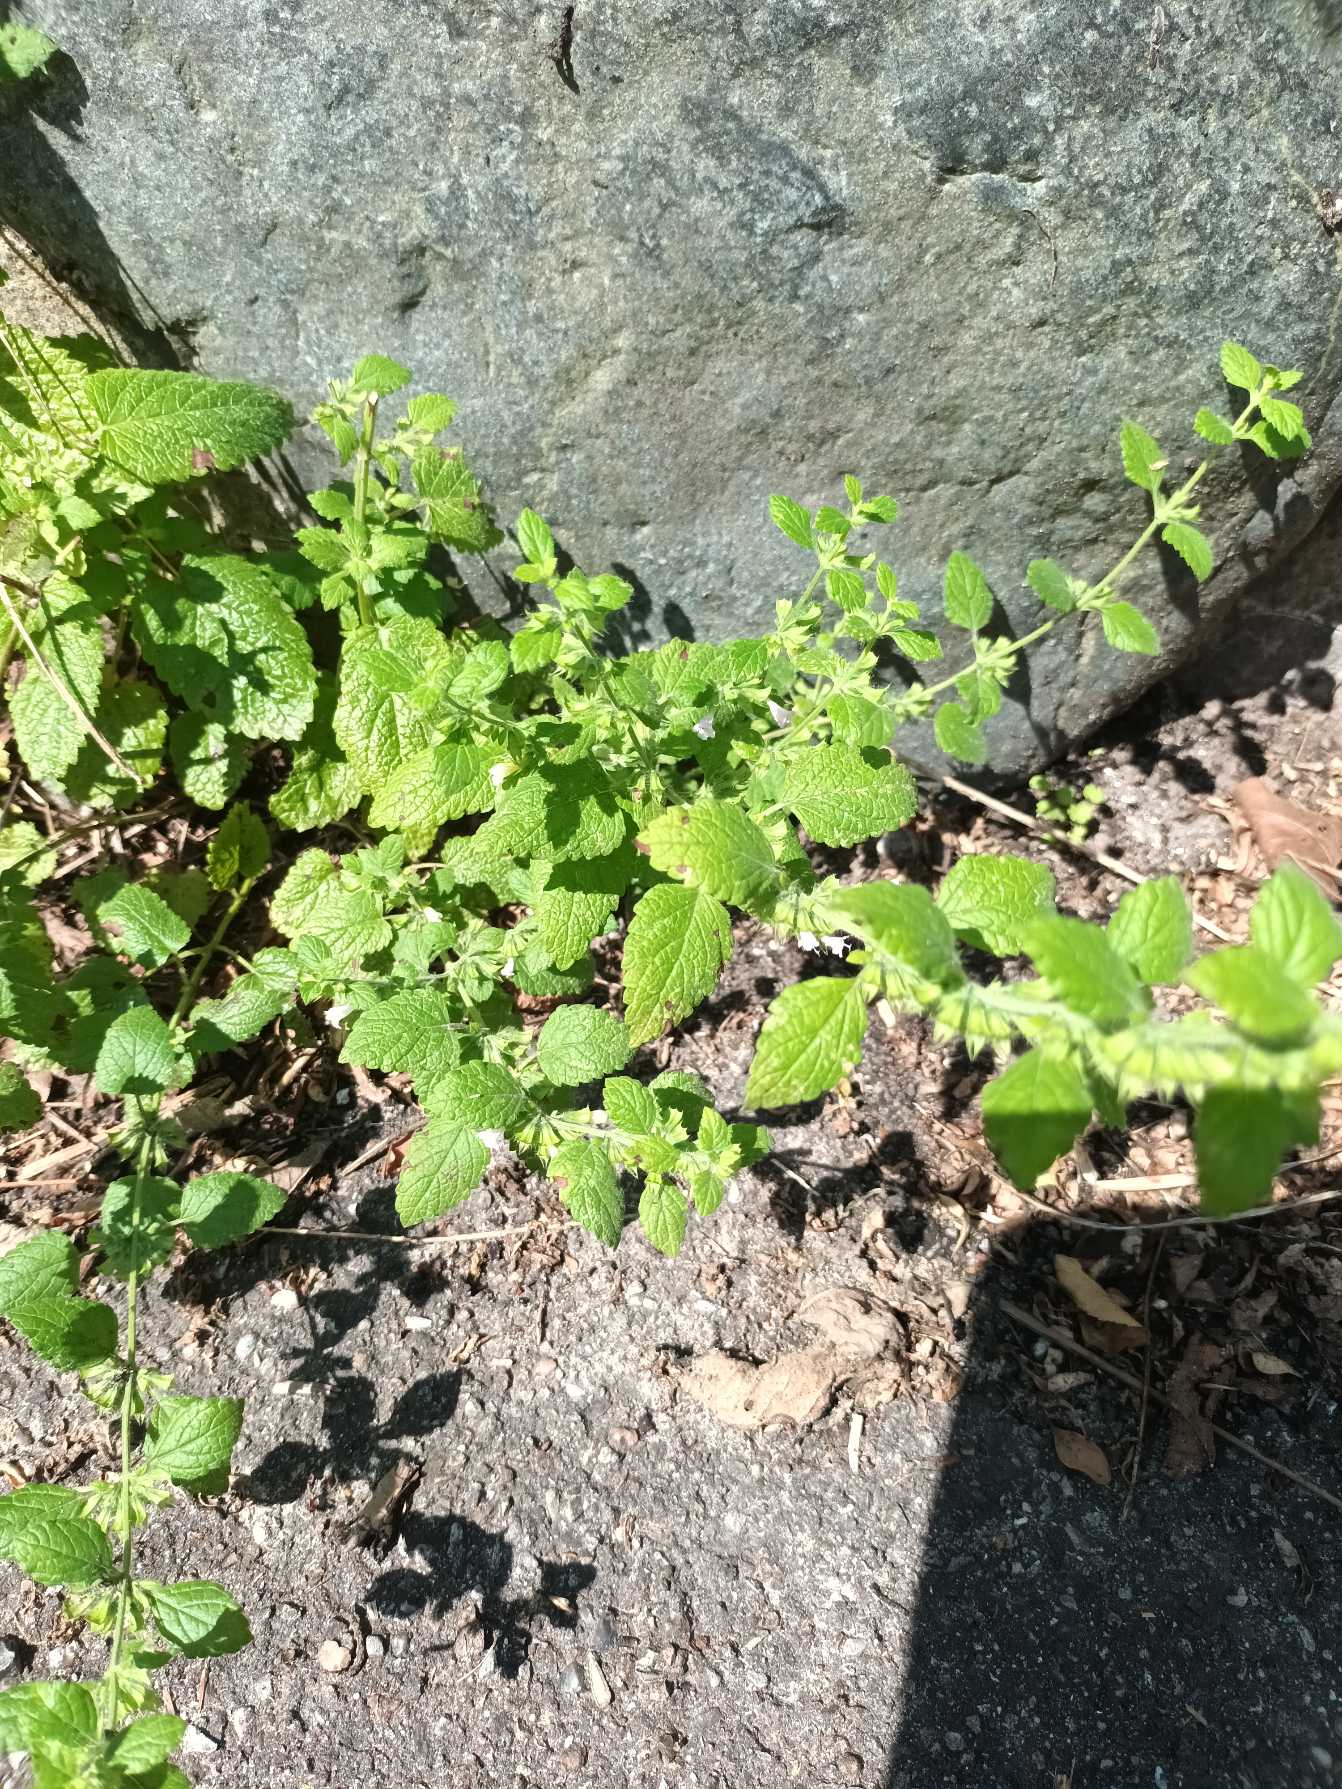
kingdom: Plantae
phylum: Tracheophyta
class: Magnoliopsida
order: Lamiales
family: Lamiaceae
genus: Melissa
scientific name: Melissa officinalis
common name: Citronmelisse
